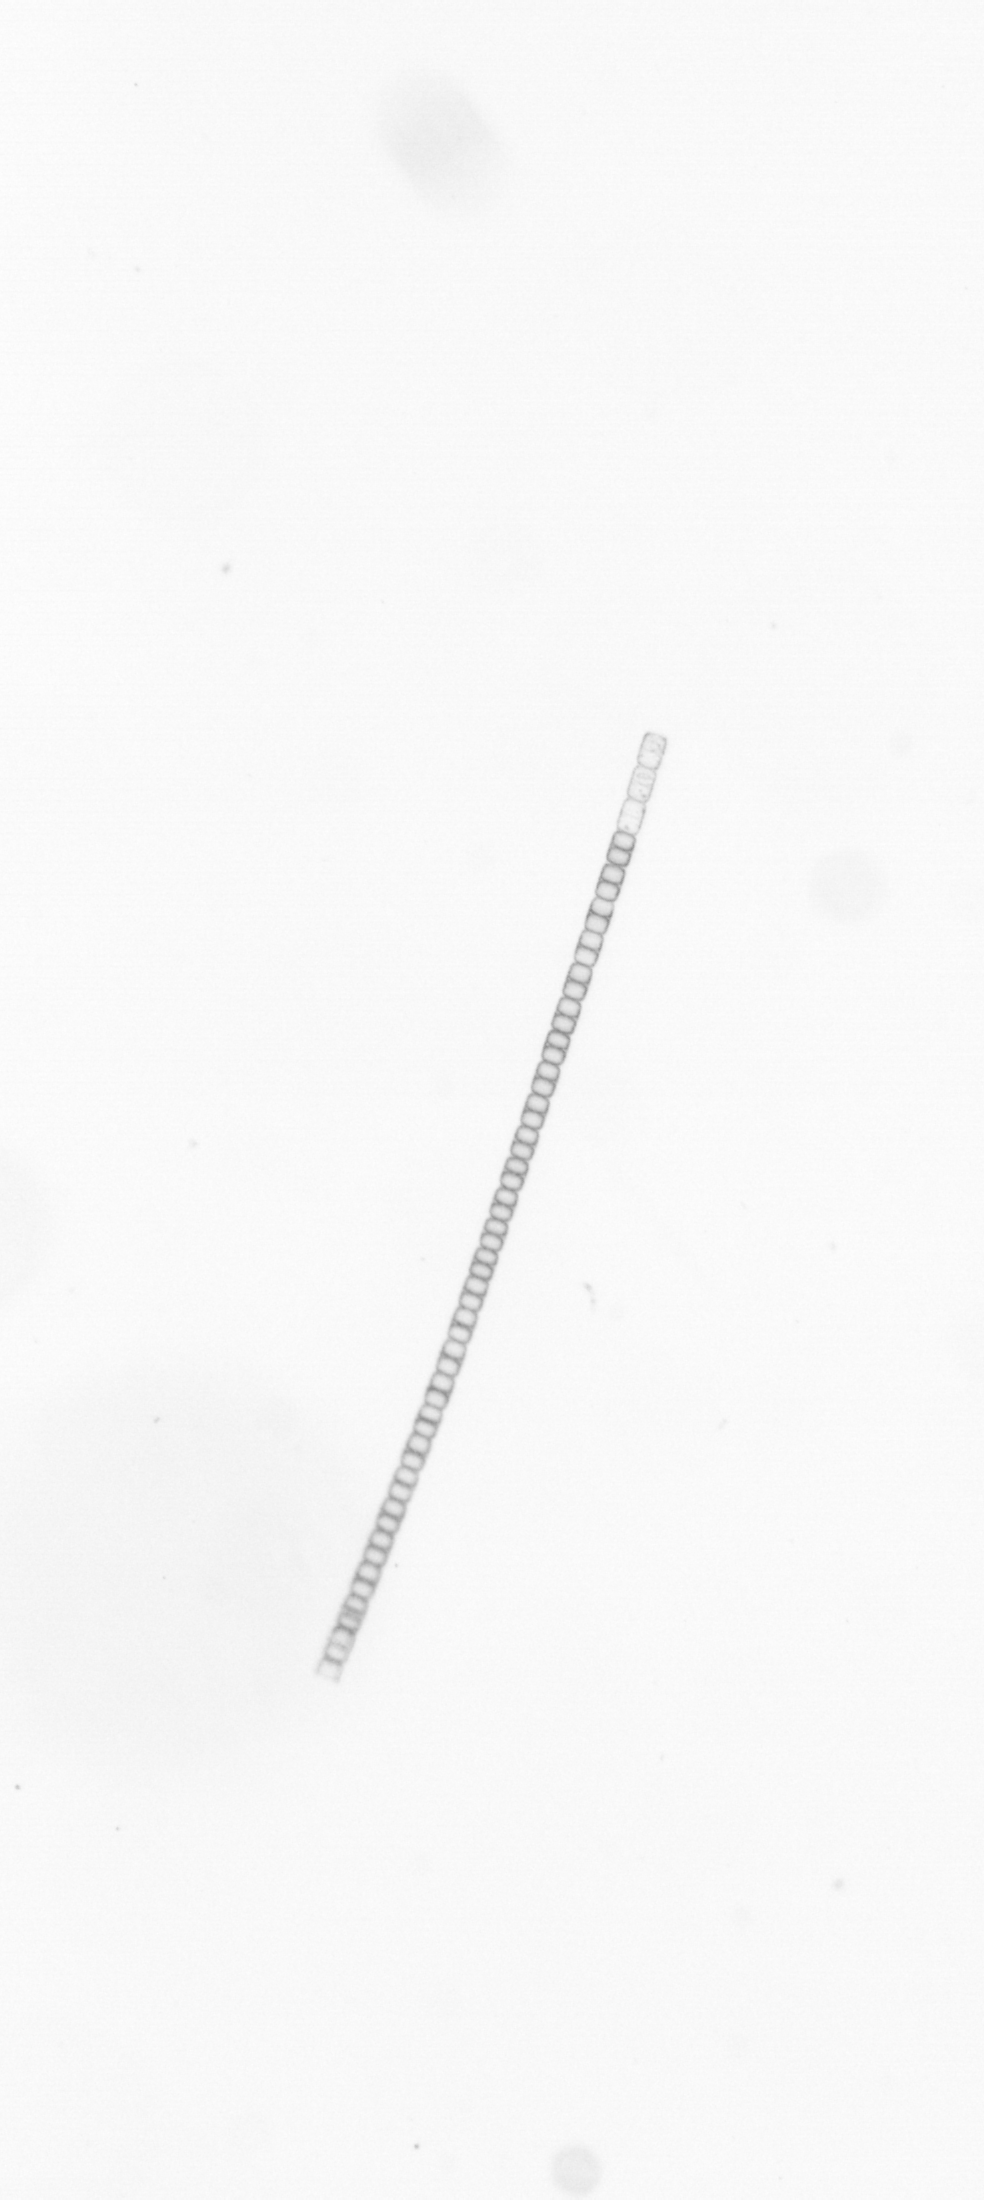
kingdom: Chromista
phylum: Ochrophyta
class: Bacillariophyceae
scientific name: Bacillariophyceae
